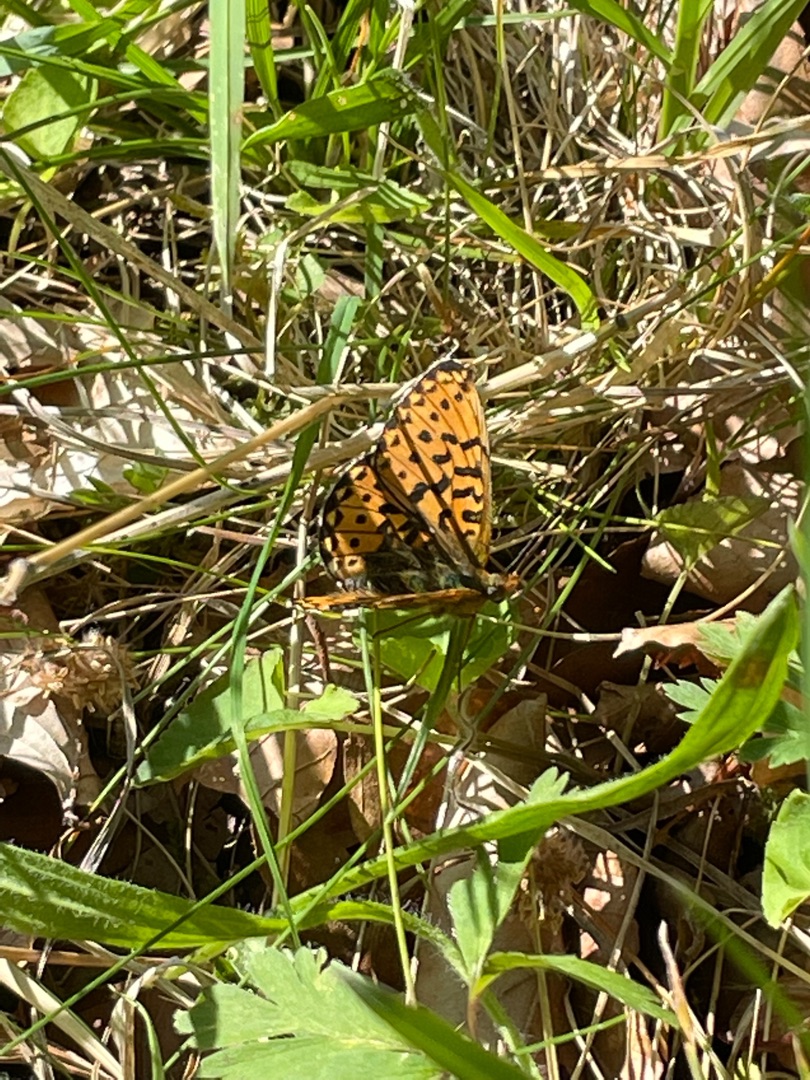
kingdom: Animalia
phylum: Arthropoda
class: Insecta
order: Lepidoptera
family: Nymphalidae
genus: Clossiana
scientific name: Clossiana euphrosyne
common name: Rødlig perlemorsommerfugl
